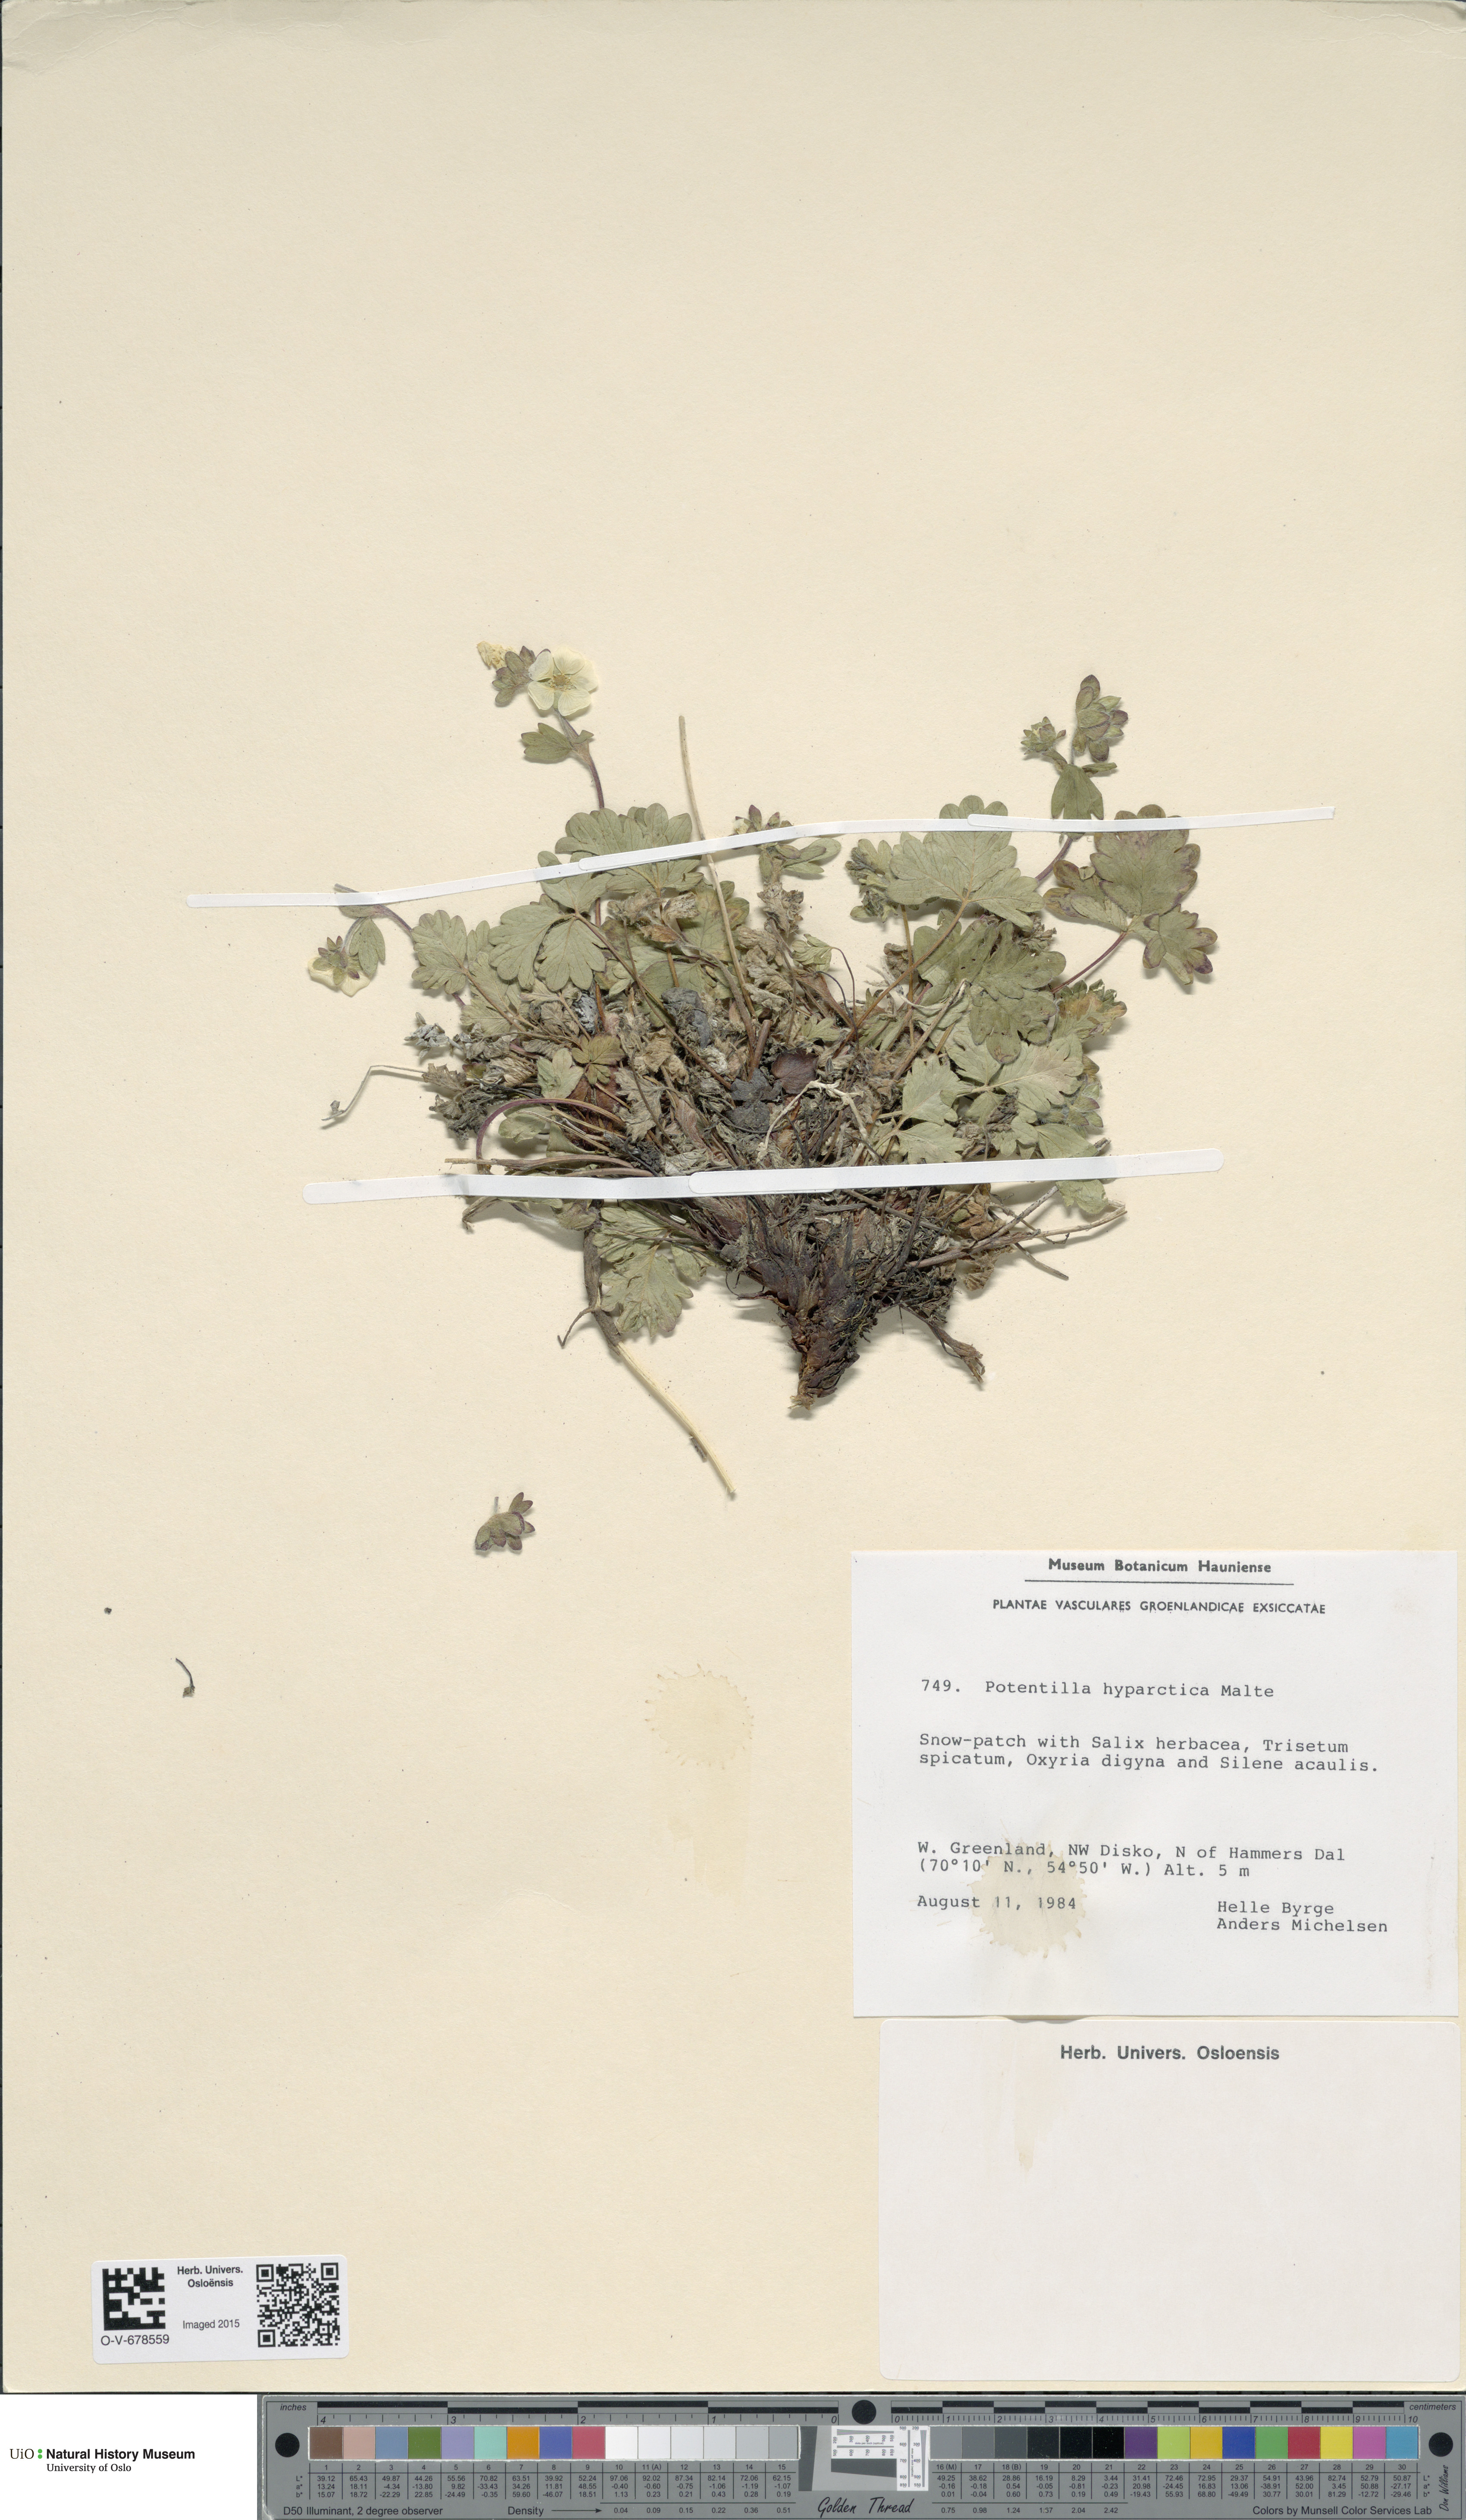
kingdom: Plantae
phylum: Tracheophyta
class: Magnoliopsida
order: Rosales
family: Rosaceae
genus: Potentilla
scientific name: Potentilla hyparctica
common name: Arctic cinquefoil
